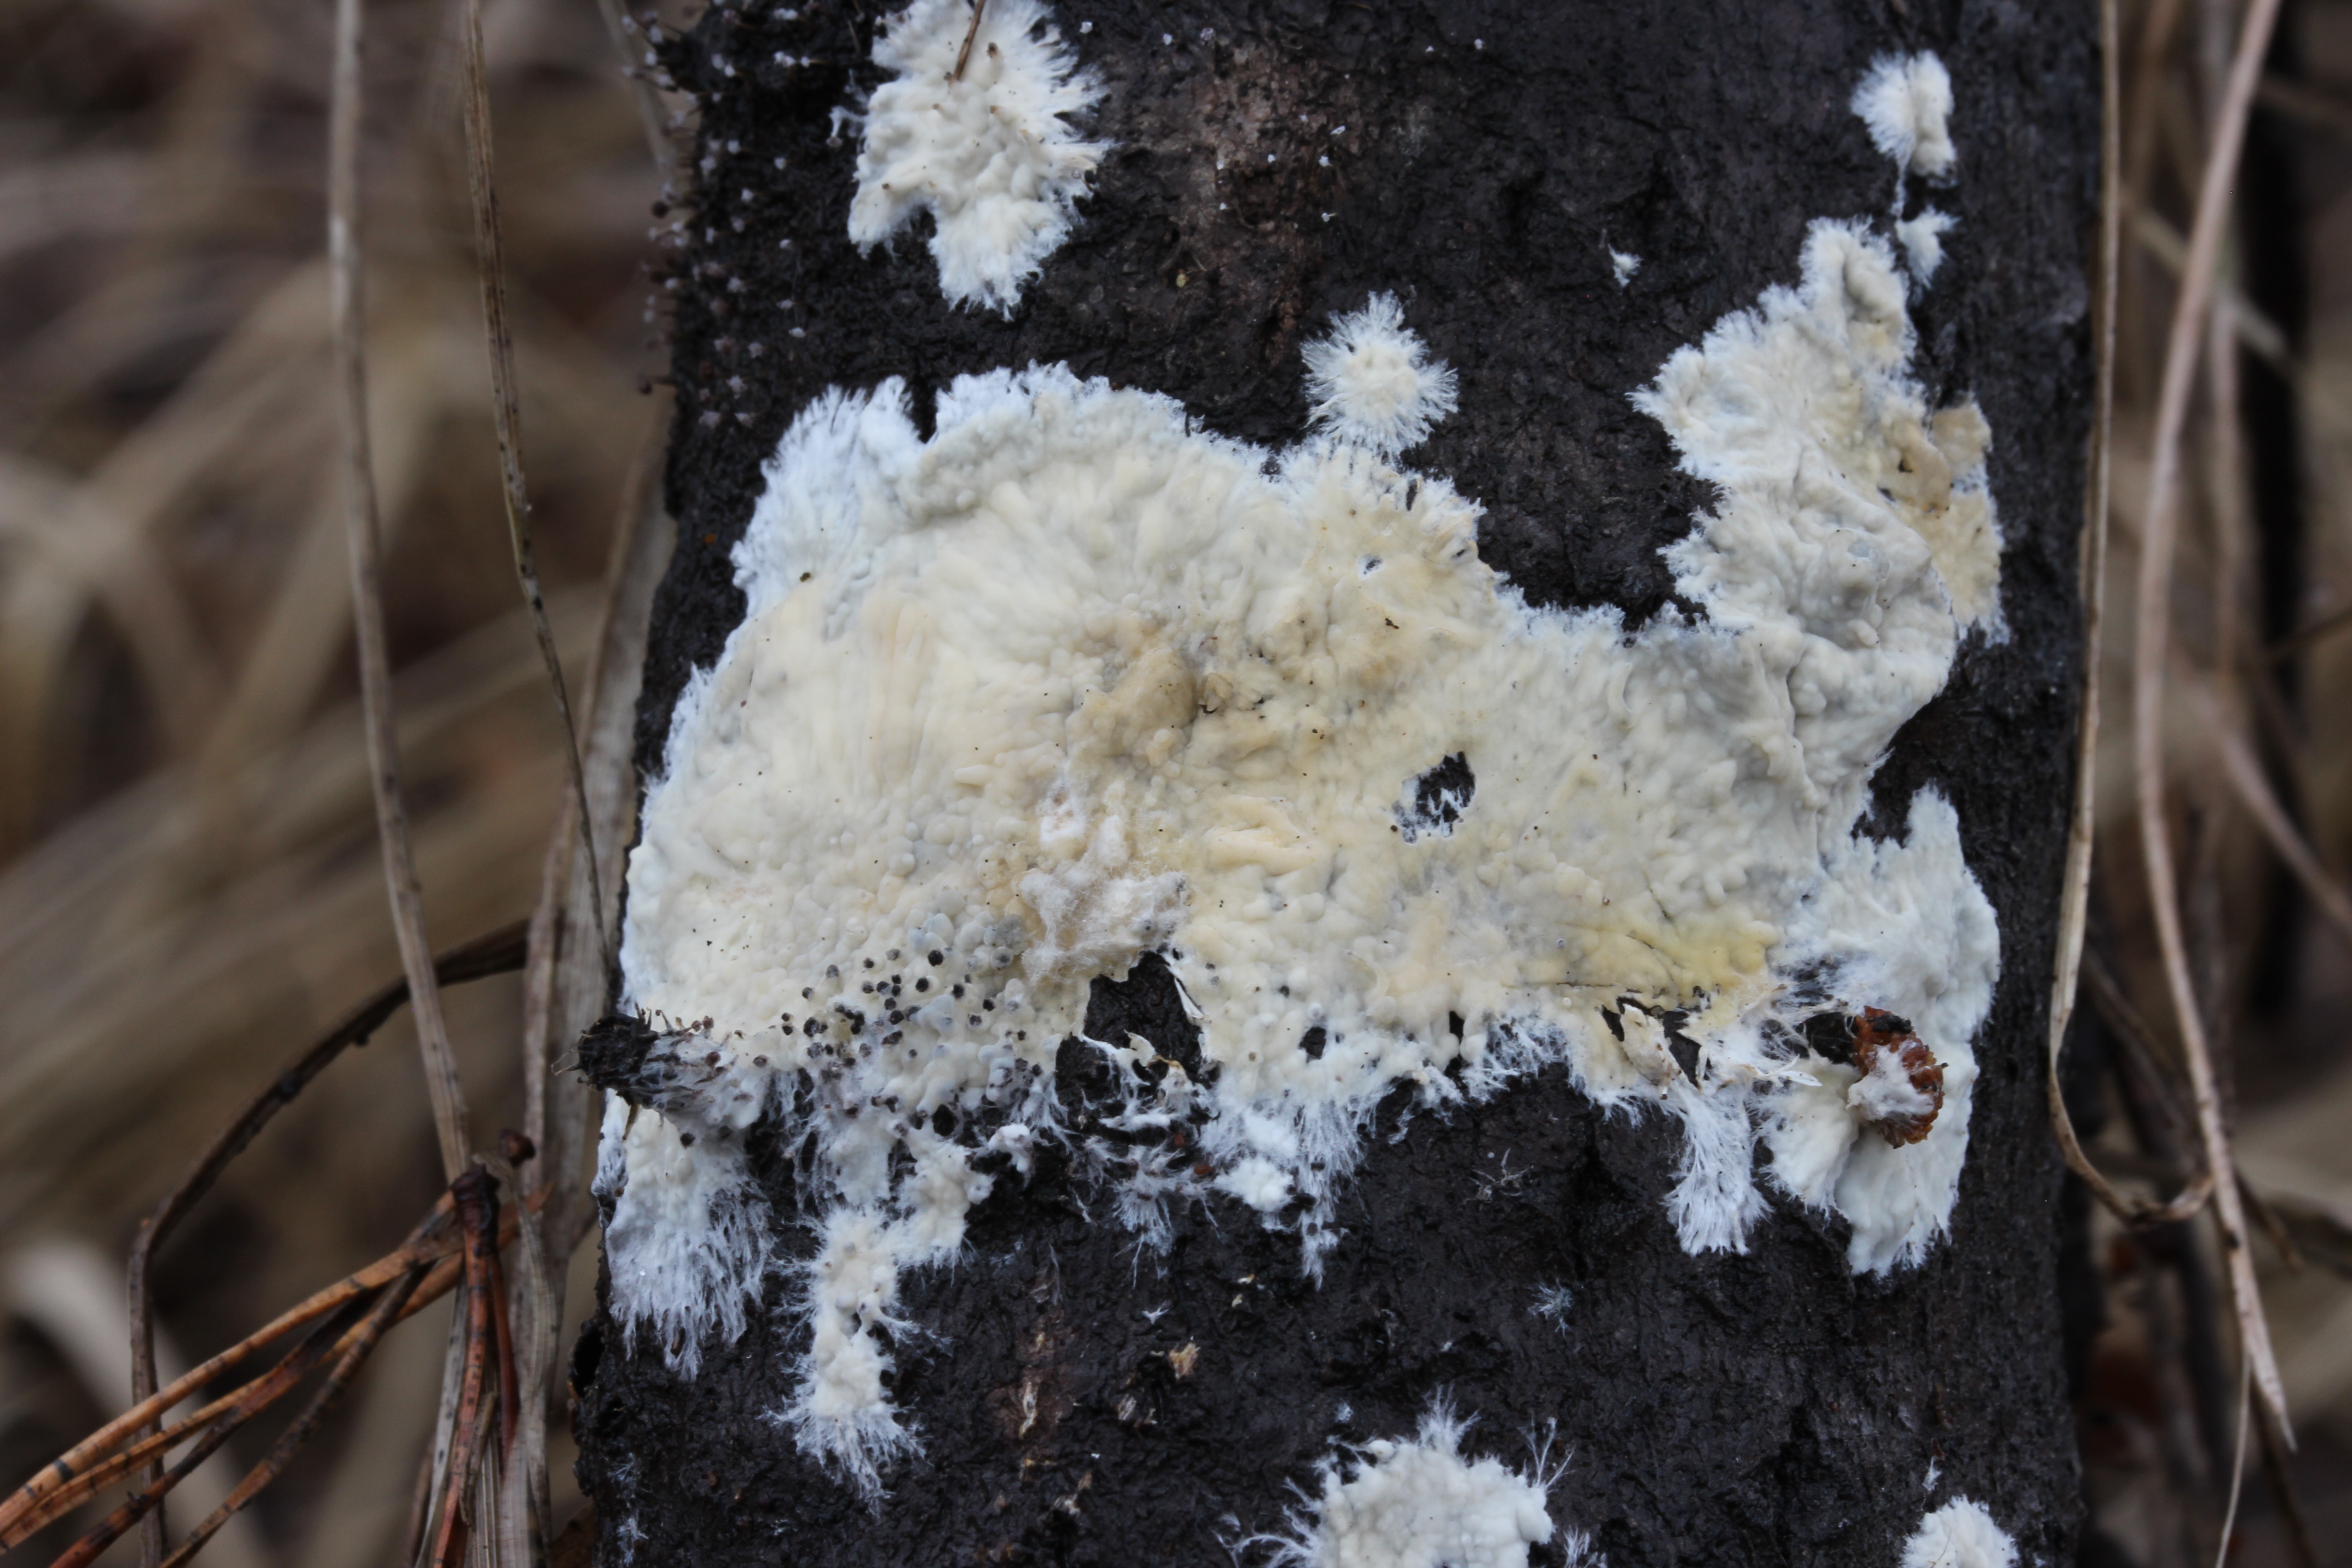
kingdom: Fungi
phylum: Basidiomycota
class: Agaricomycetes
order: Russulales
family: Peniophoraceae
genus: Gloiothele
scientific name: Gloiothele citrina
